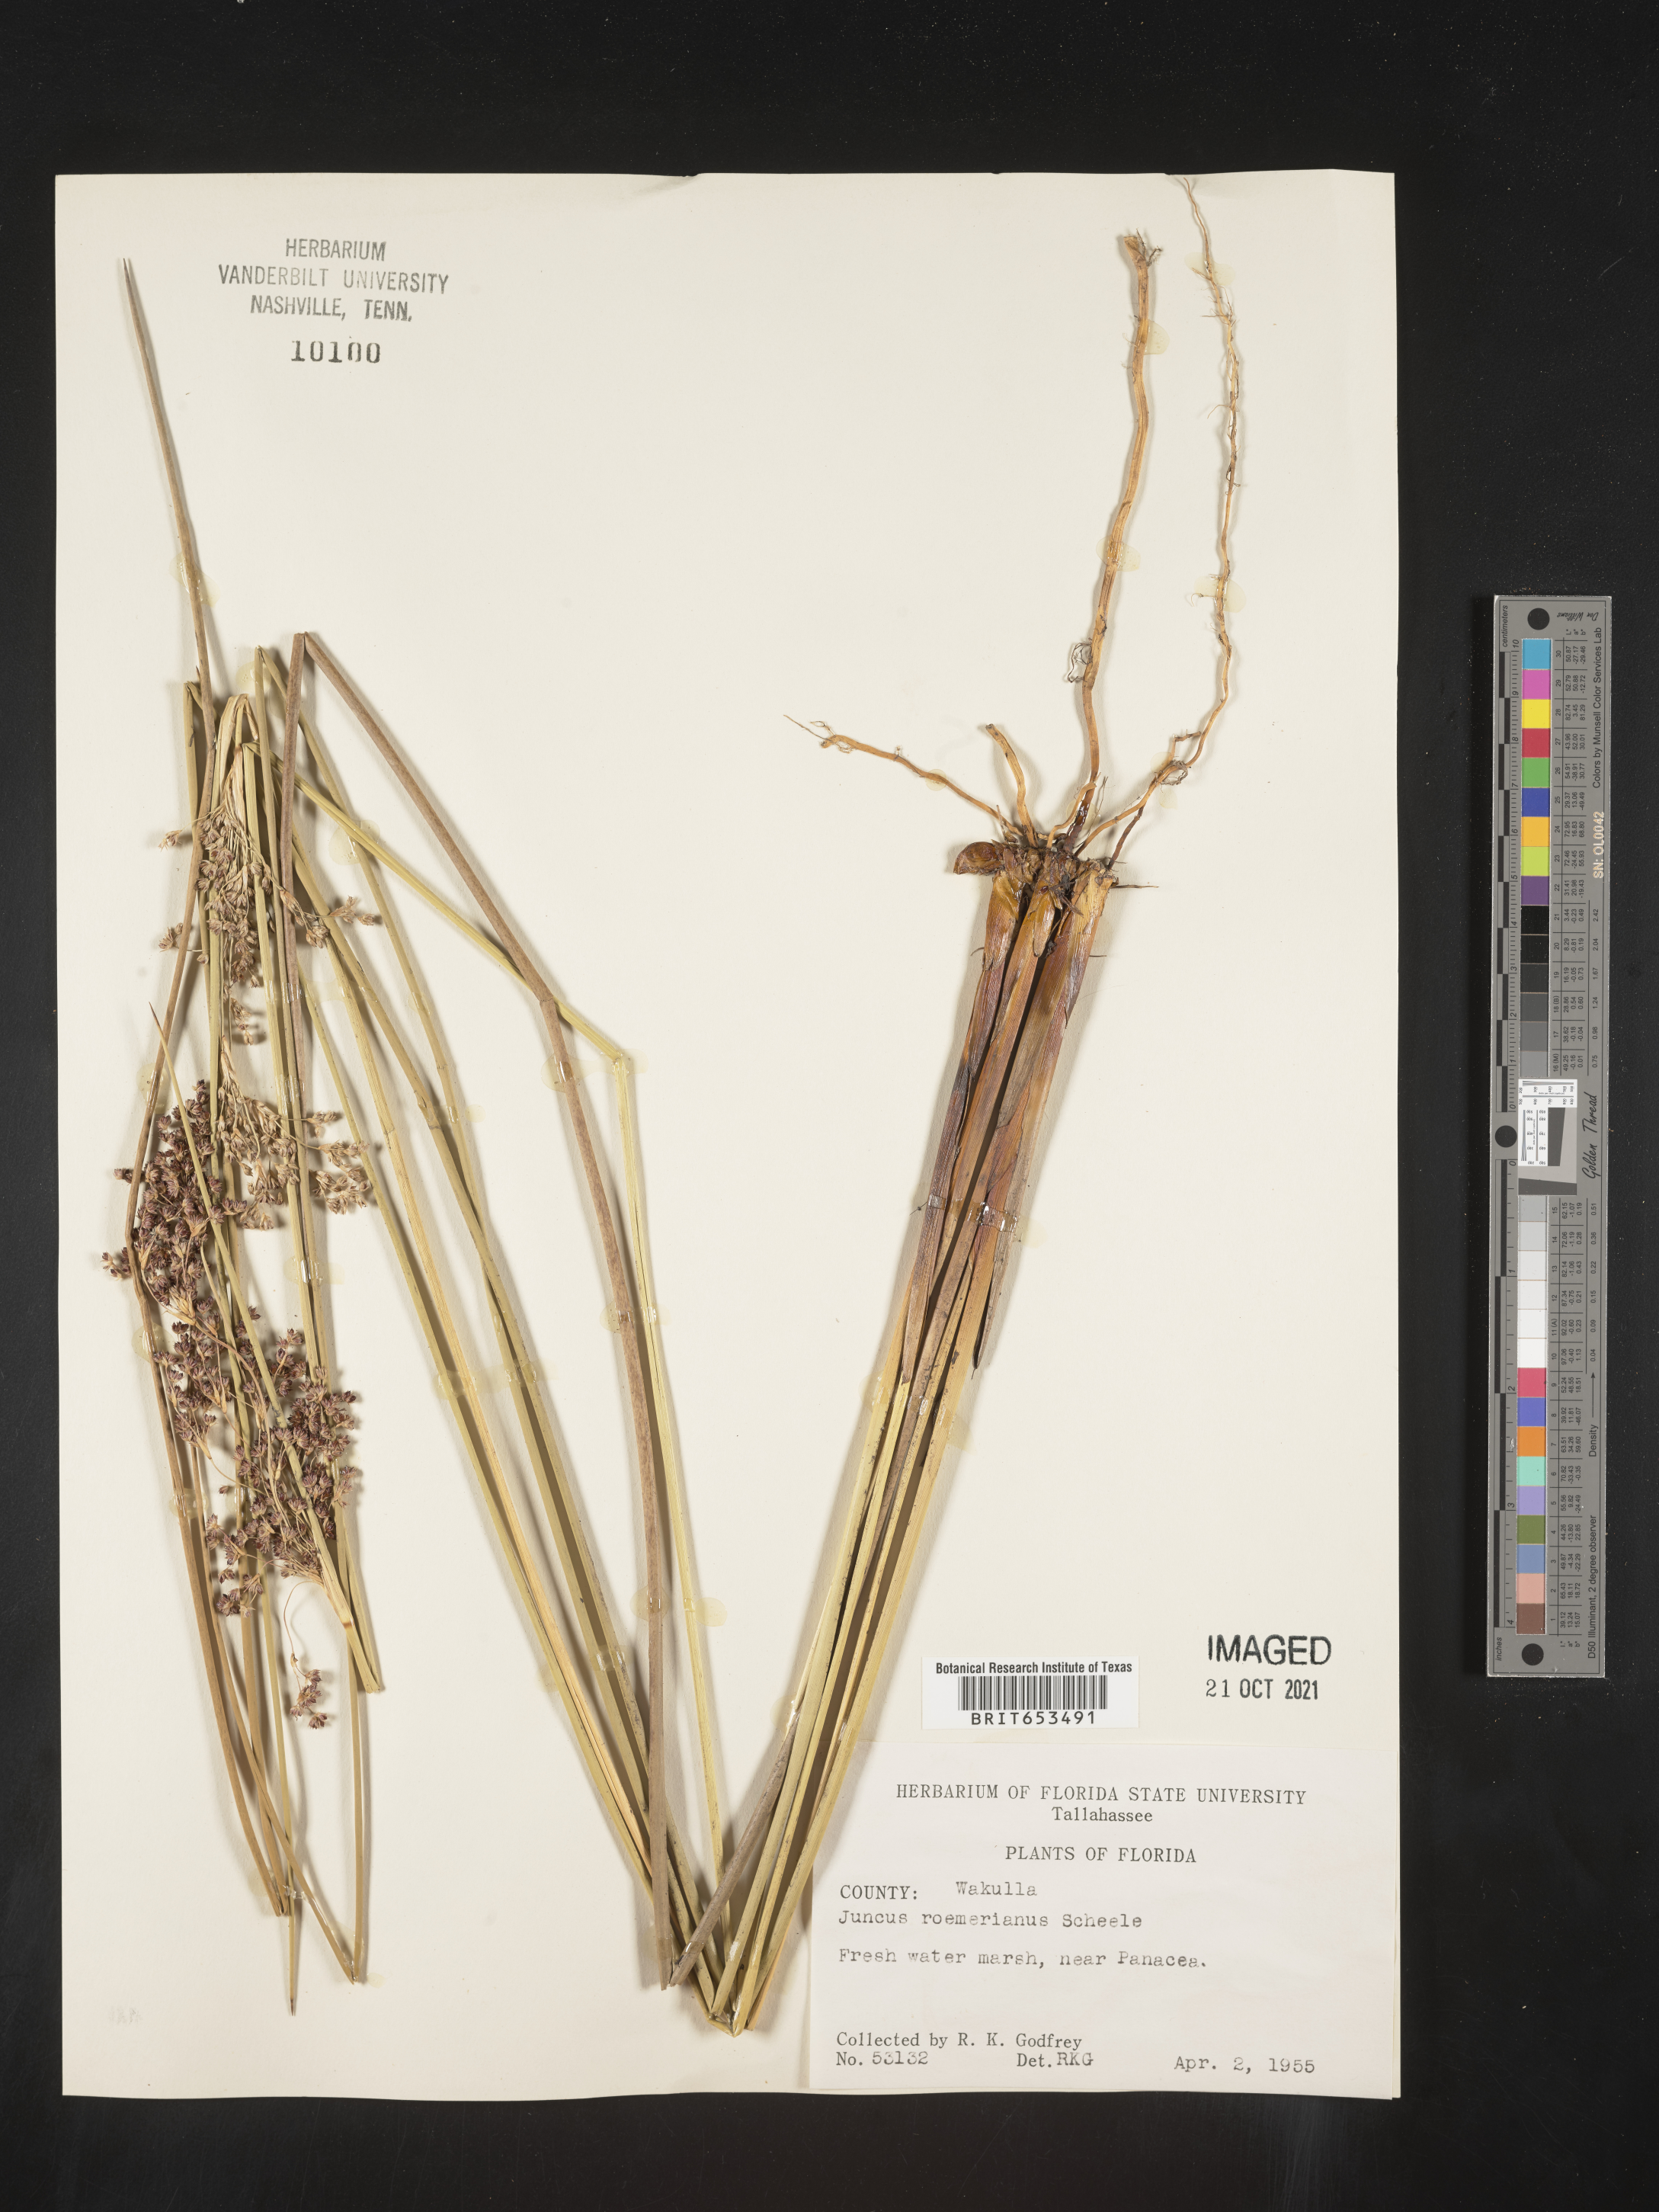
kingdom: Plantae
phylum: Tracheophyta
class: Liliopsida
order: Poales
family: Juncaceae
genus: Juncus
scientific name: Juncus roemerianus
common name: Roemer's rush
